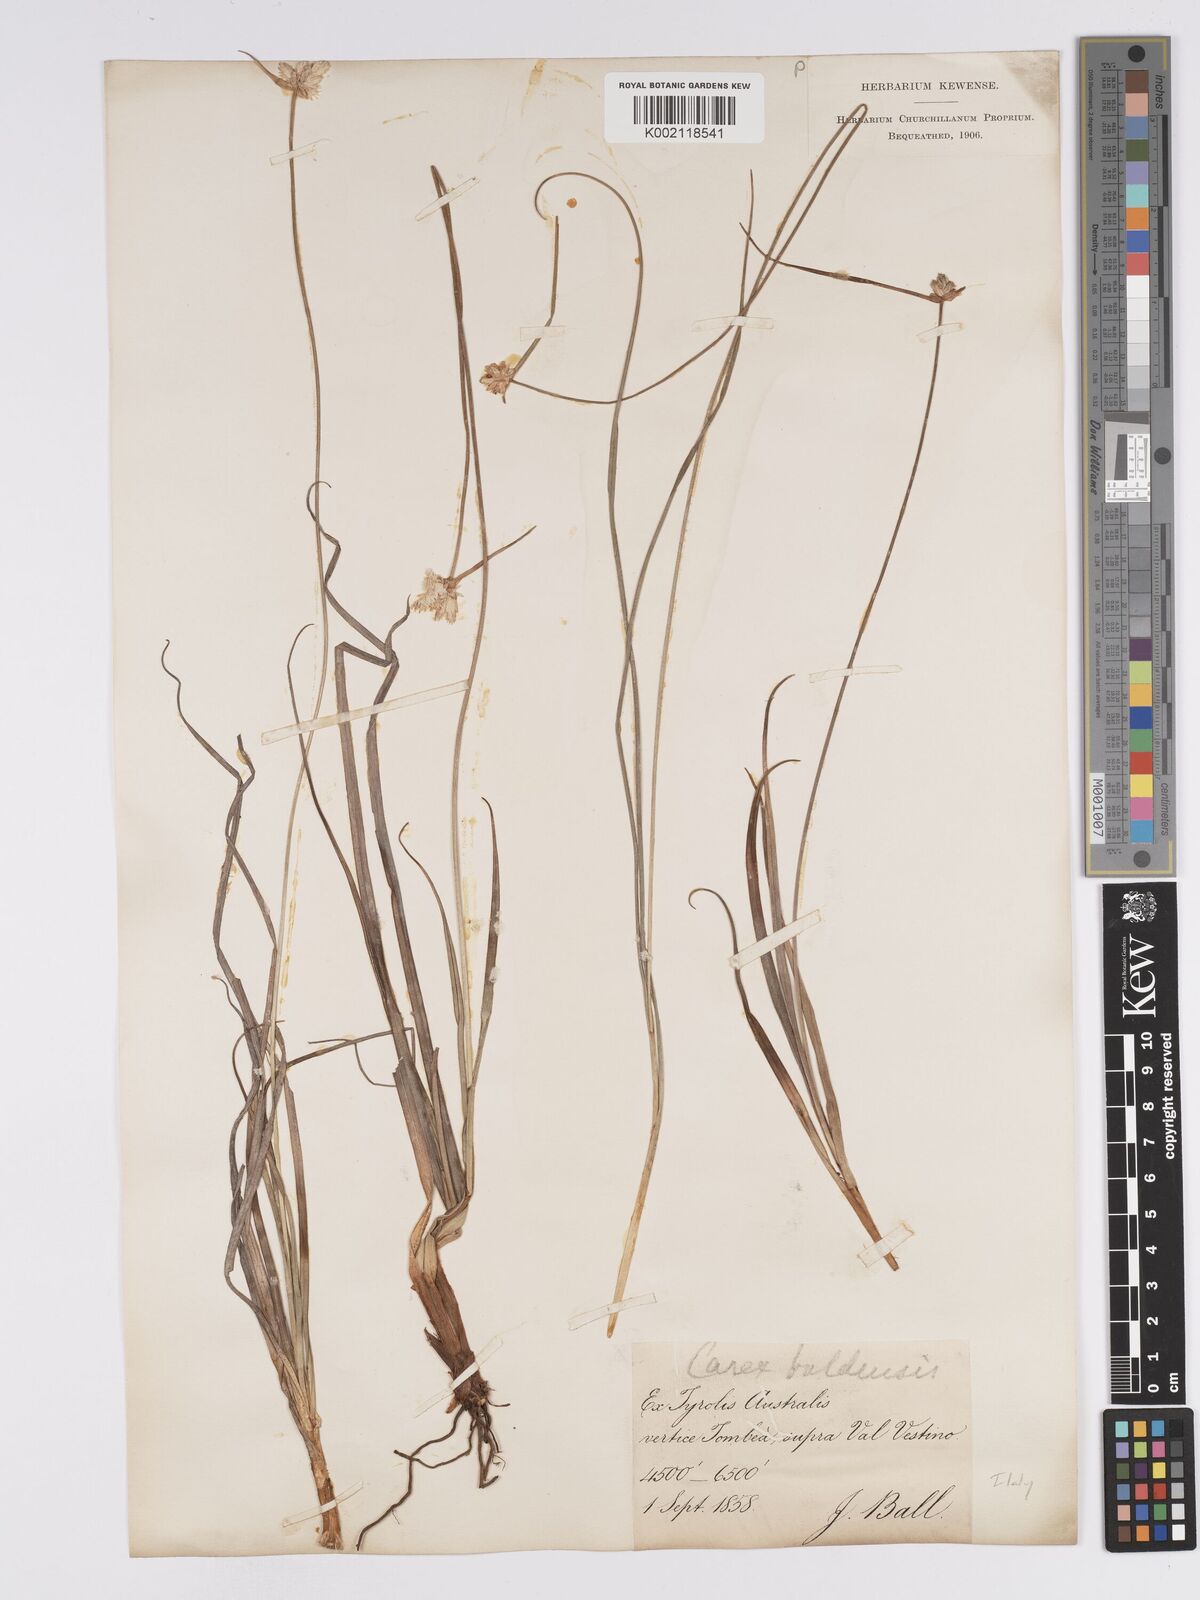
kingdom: Plantae
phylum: Tracheophyta
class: Liliopsida
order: Poales
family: Cyperaceae
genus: Carex
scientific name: Carex baldensis
